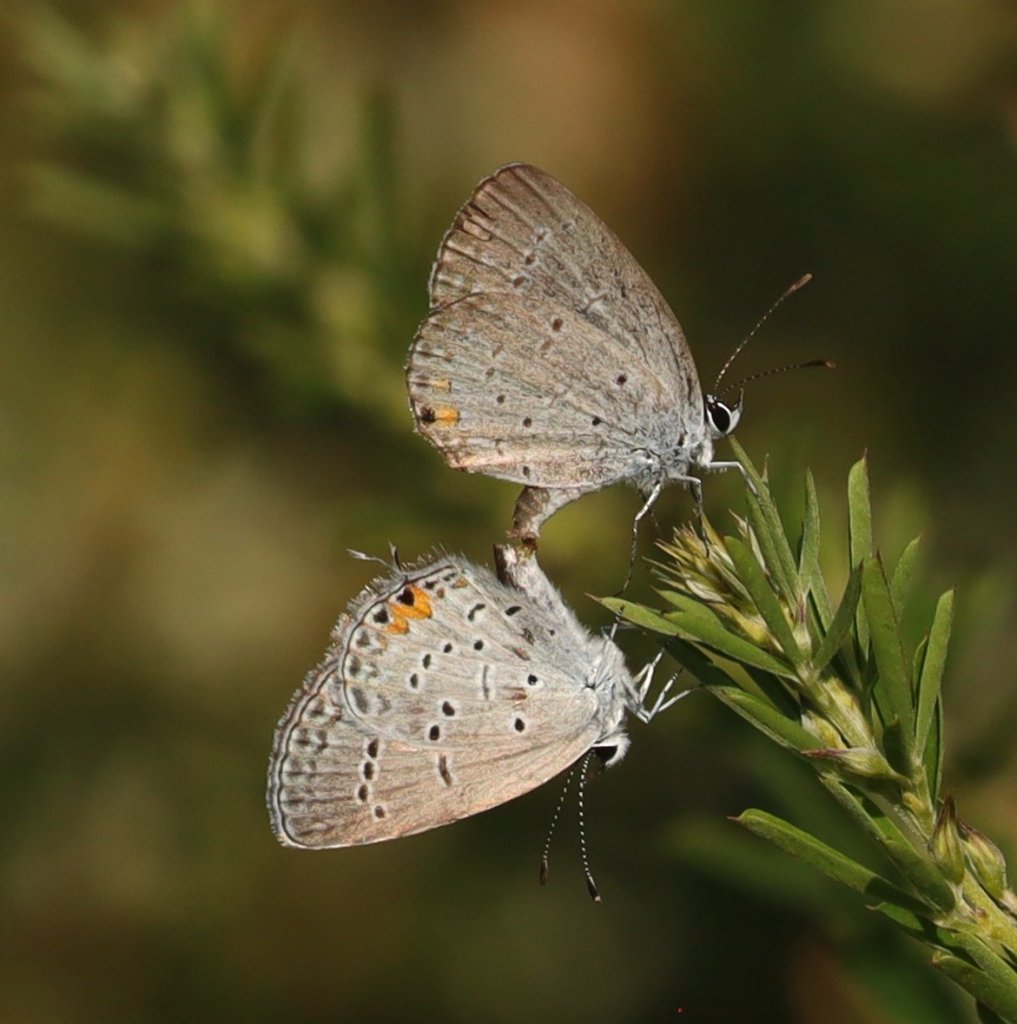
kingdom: Animalia
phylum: Arthropoda
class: Insecta
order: Lepidoptera
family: Lycaenidae
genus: Elkalyce
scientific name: Elkalyce comyntas
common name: Eastern Tailed-Blue
